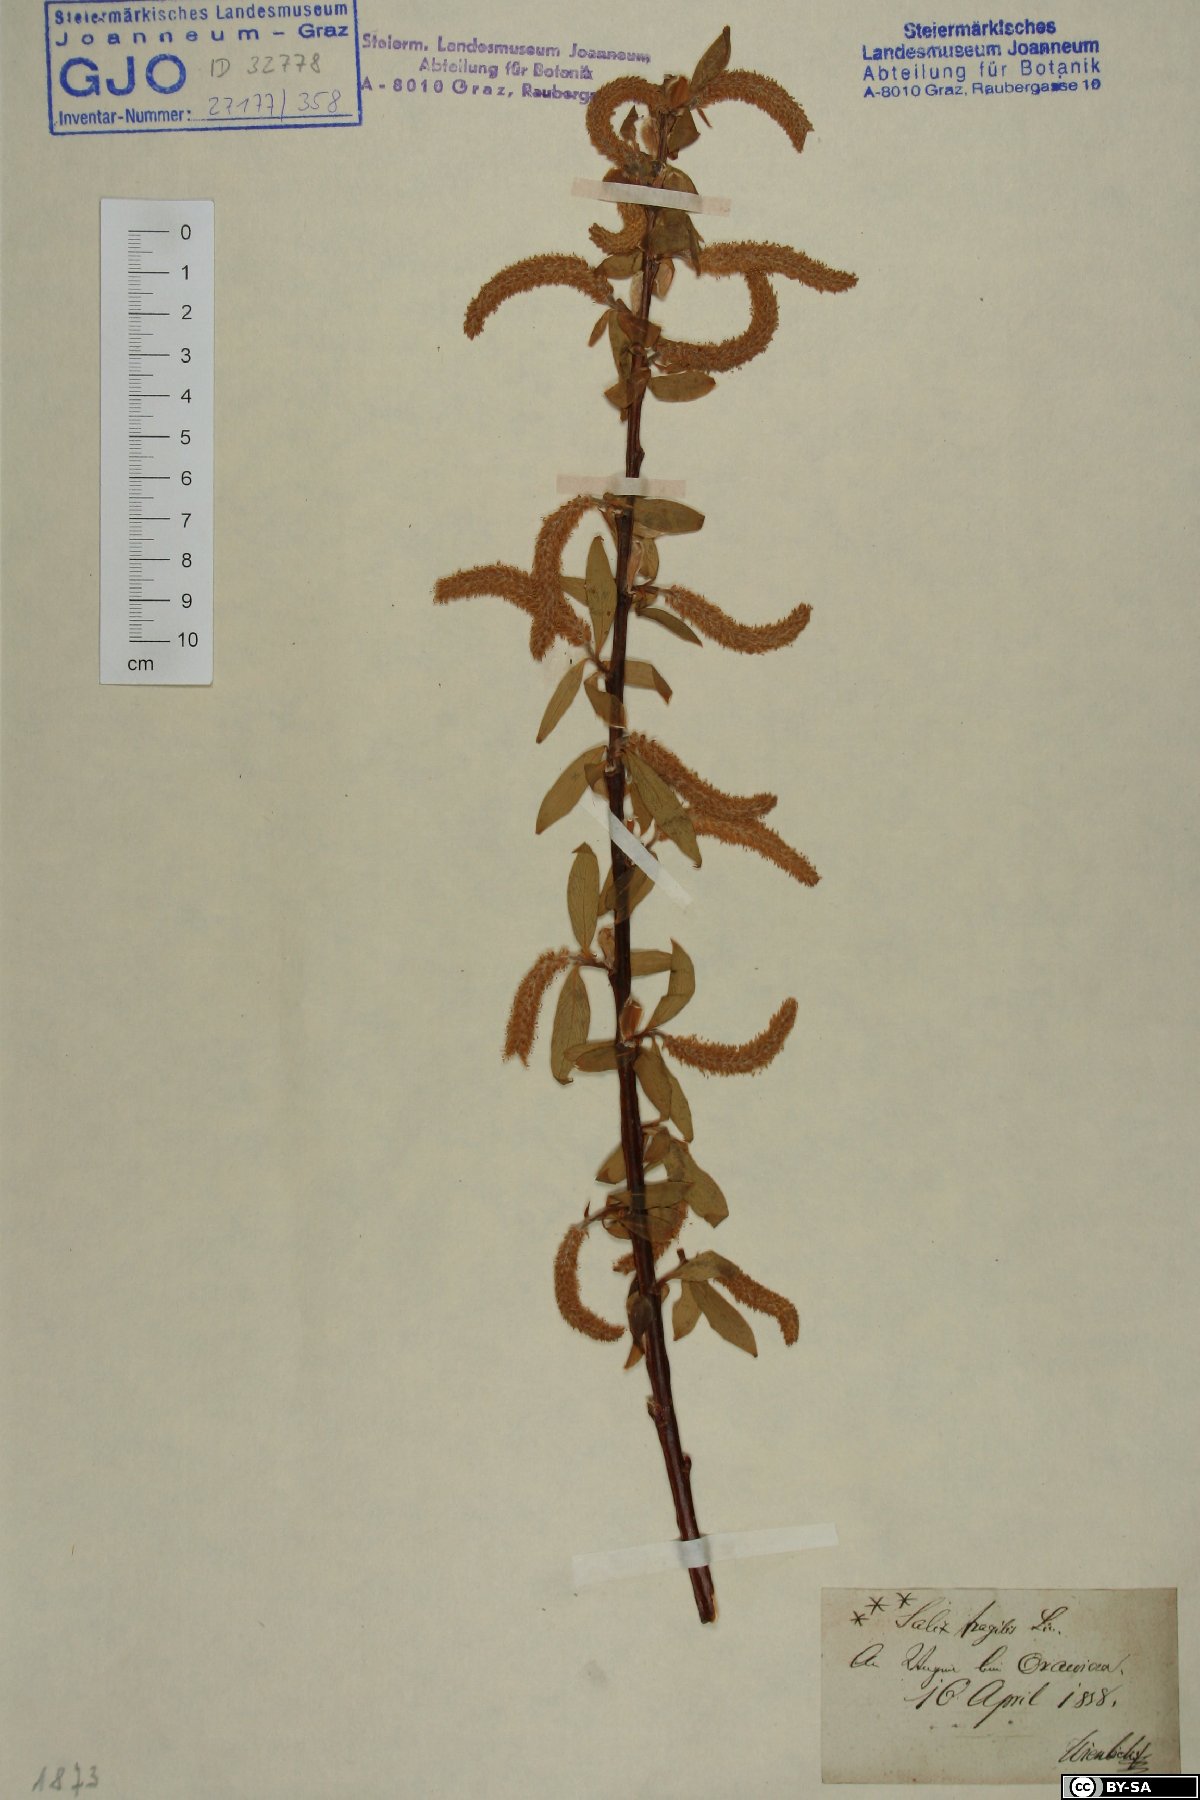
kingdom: Plantae
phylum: Tracheophyta
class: Magnoliopsida
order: Malpighiales
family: Salicaceae
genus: Salix
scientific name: Salix fragilis
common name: Crack willow
